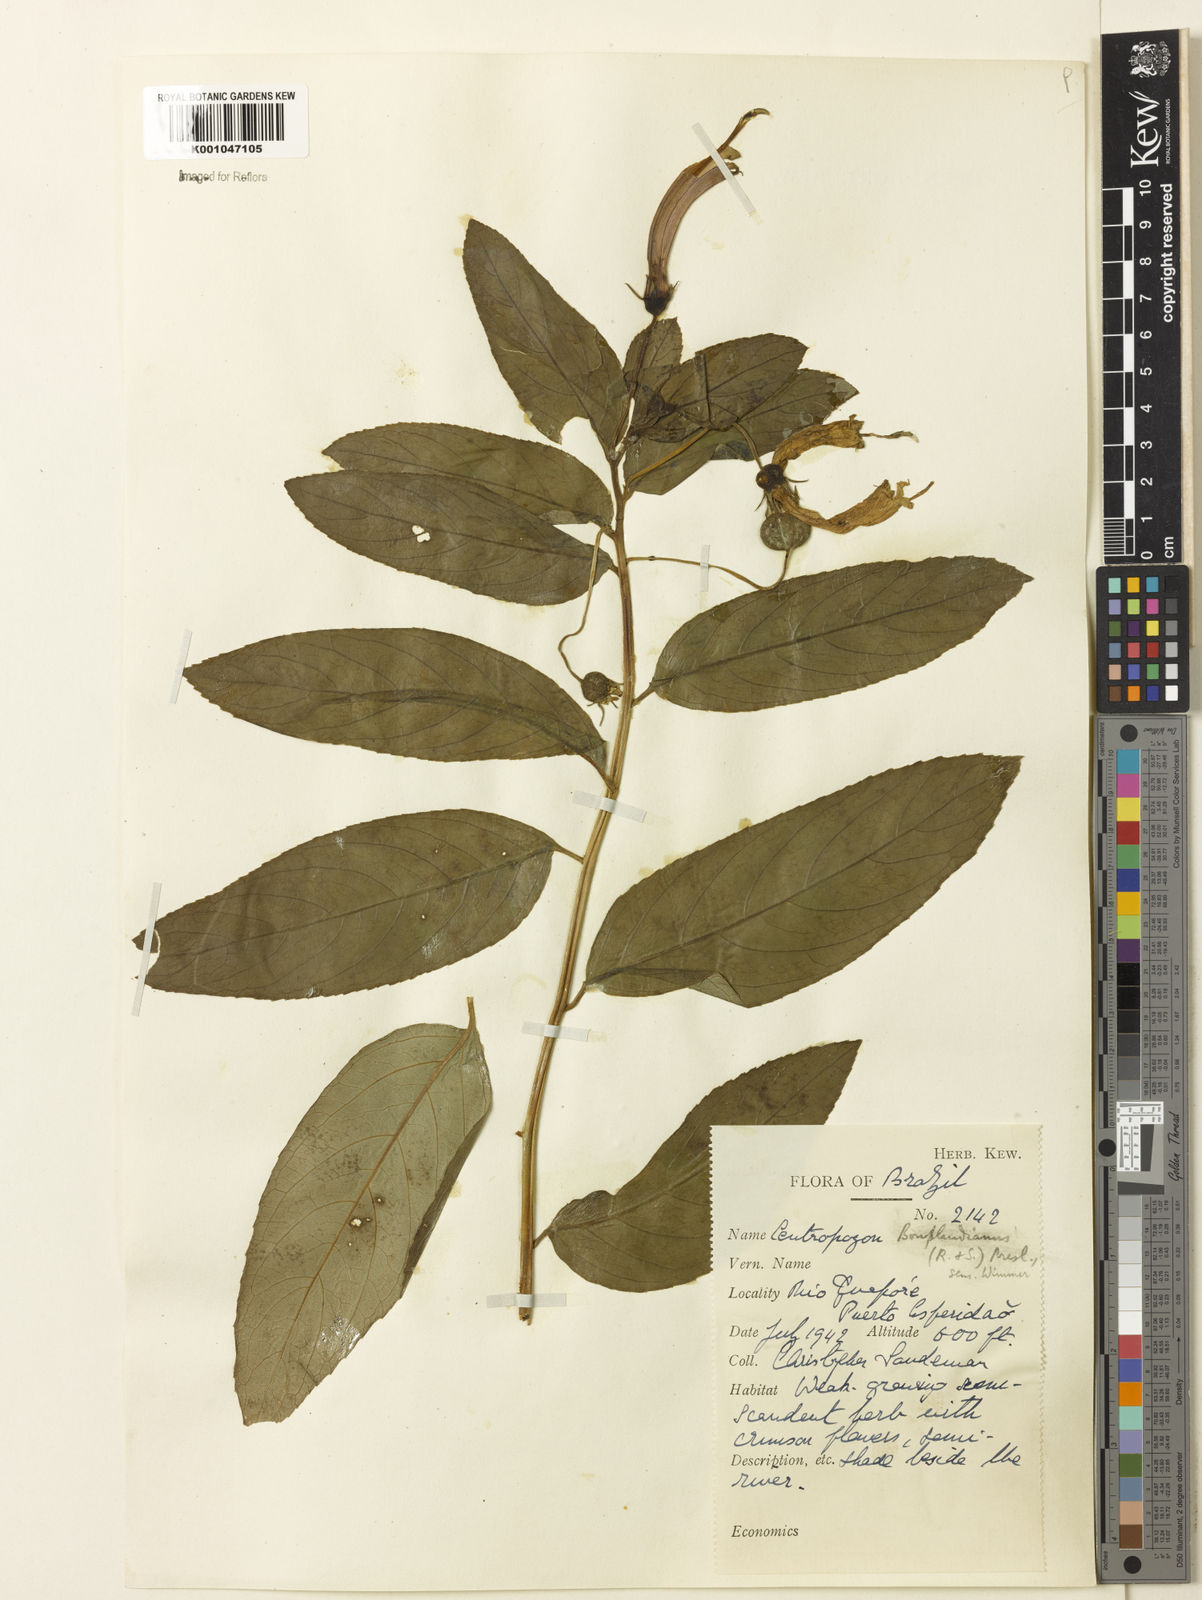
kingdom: Plantae
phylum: Tracheophyta
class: Magnoliopsida
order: Asterales
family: Campanulaceae
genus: Centropogon
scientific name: Centropogon cornutus
